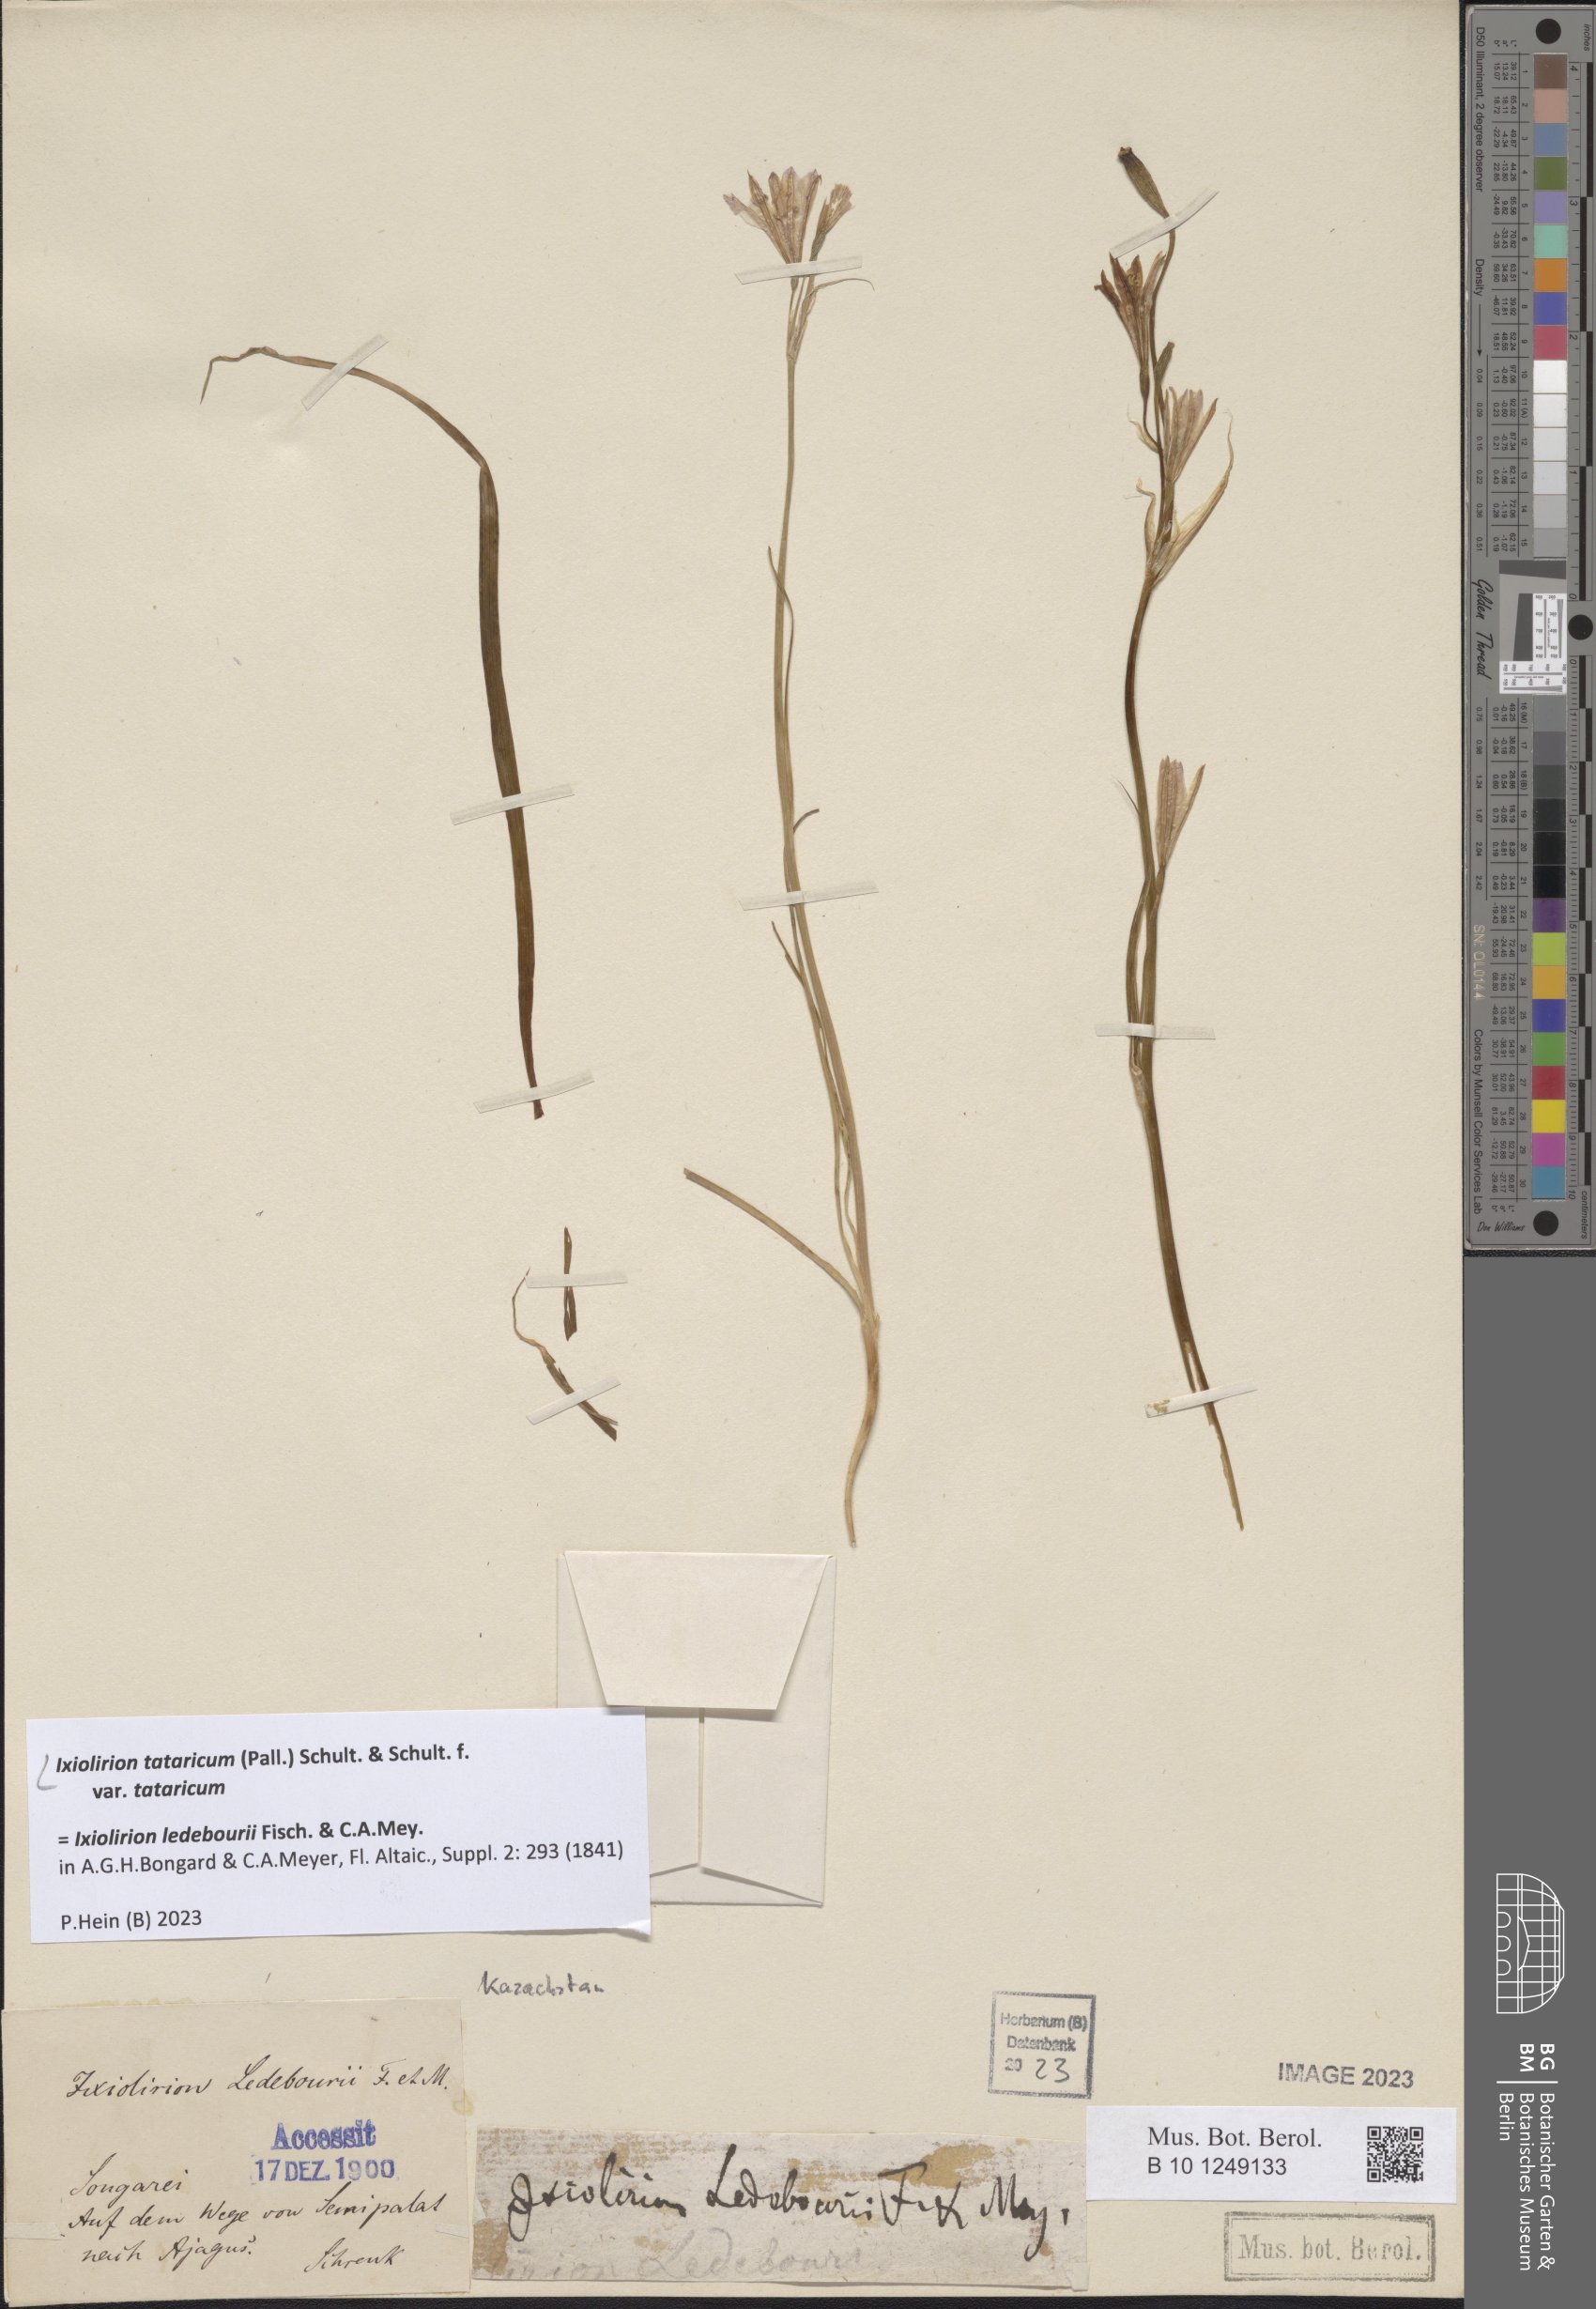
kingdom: Plantae
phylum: Tracheophyta
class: Liliopsida
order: Asparagales
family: Ixioliriaceae
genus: Ixiolirion
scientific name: Ixiolirion tataricum
